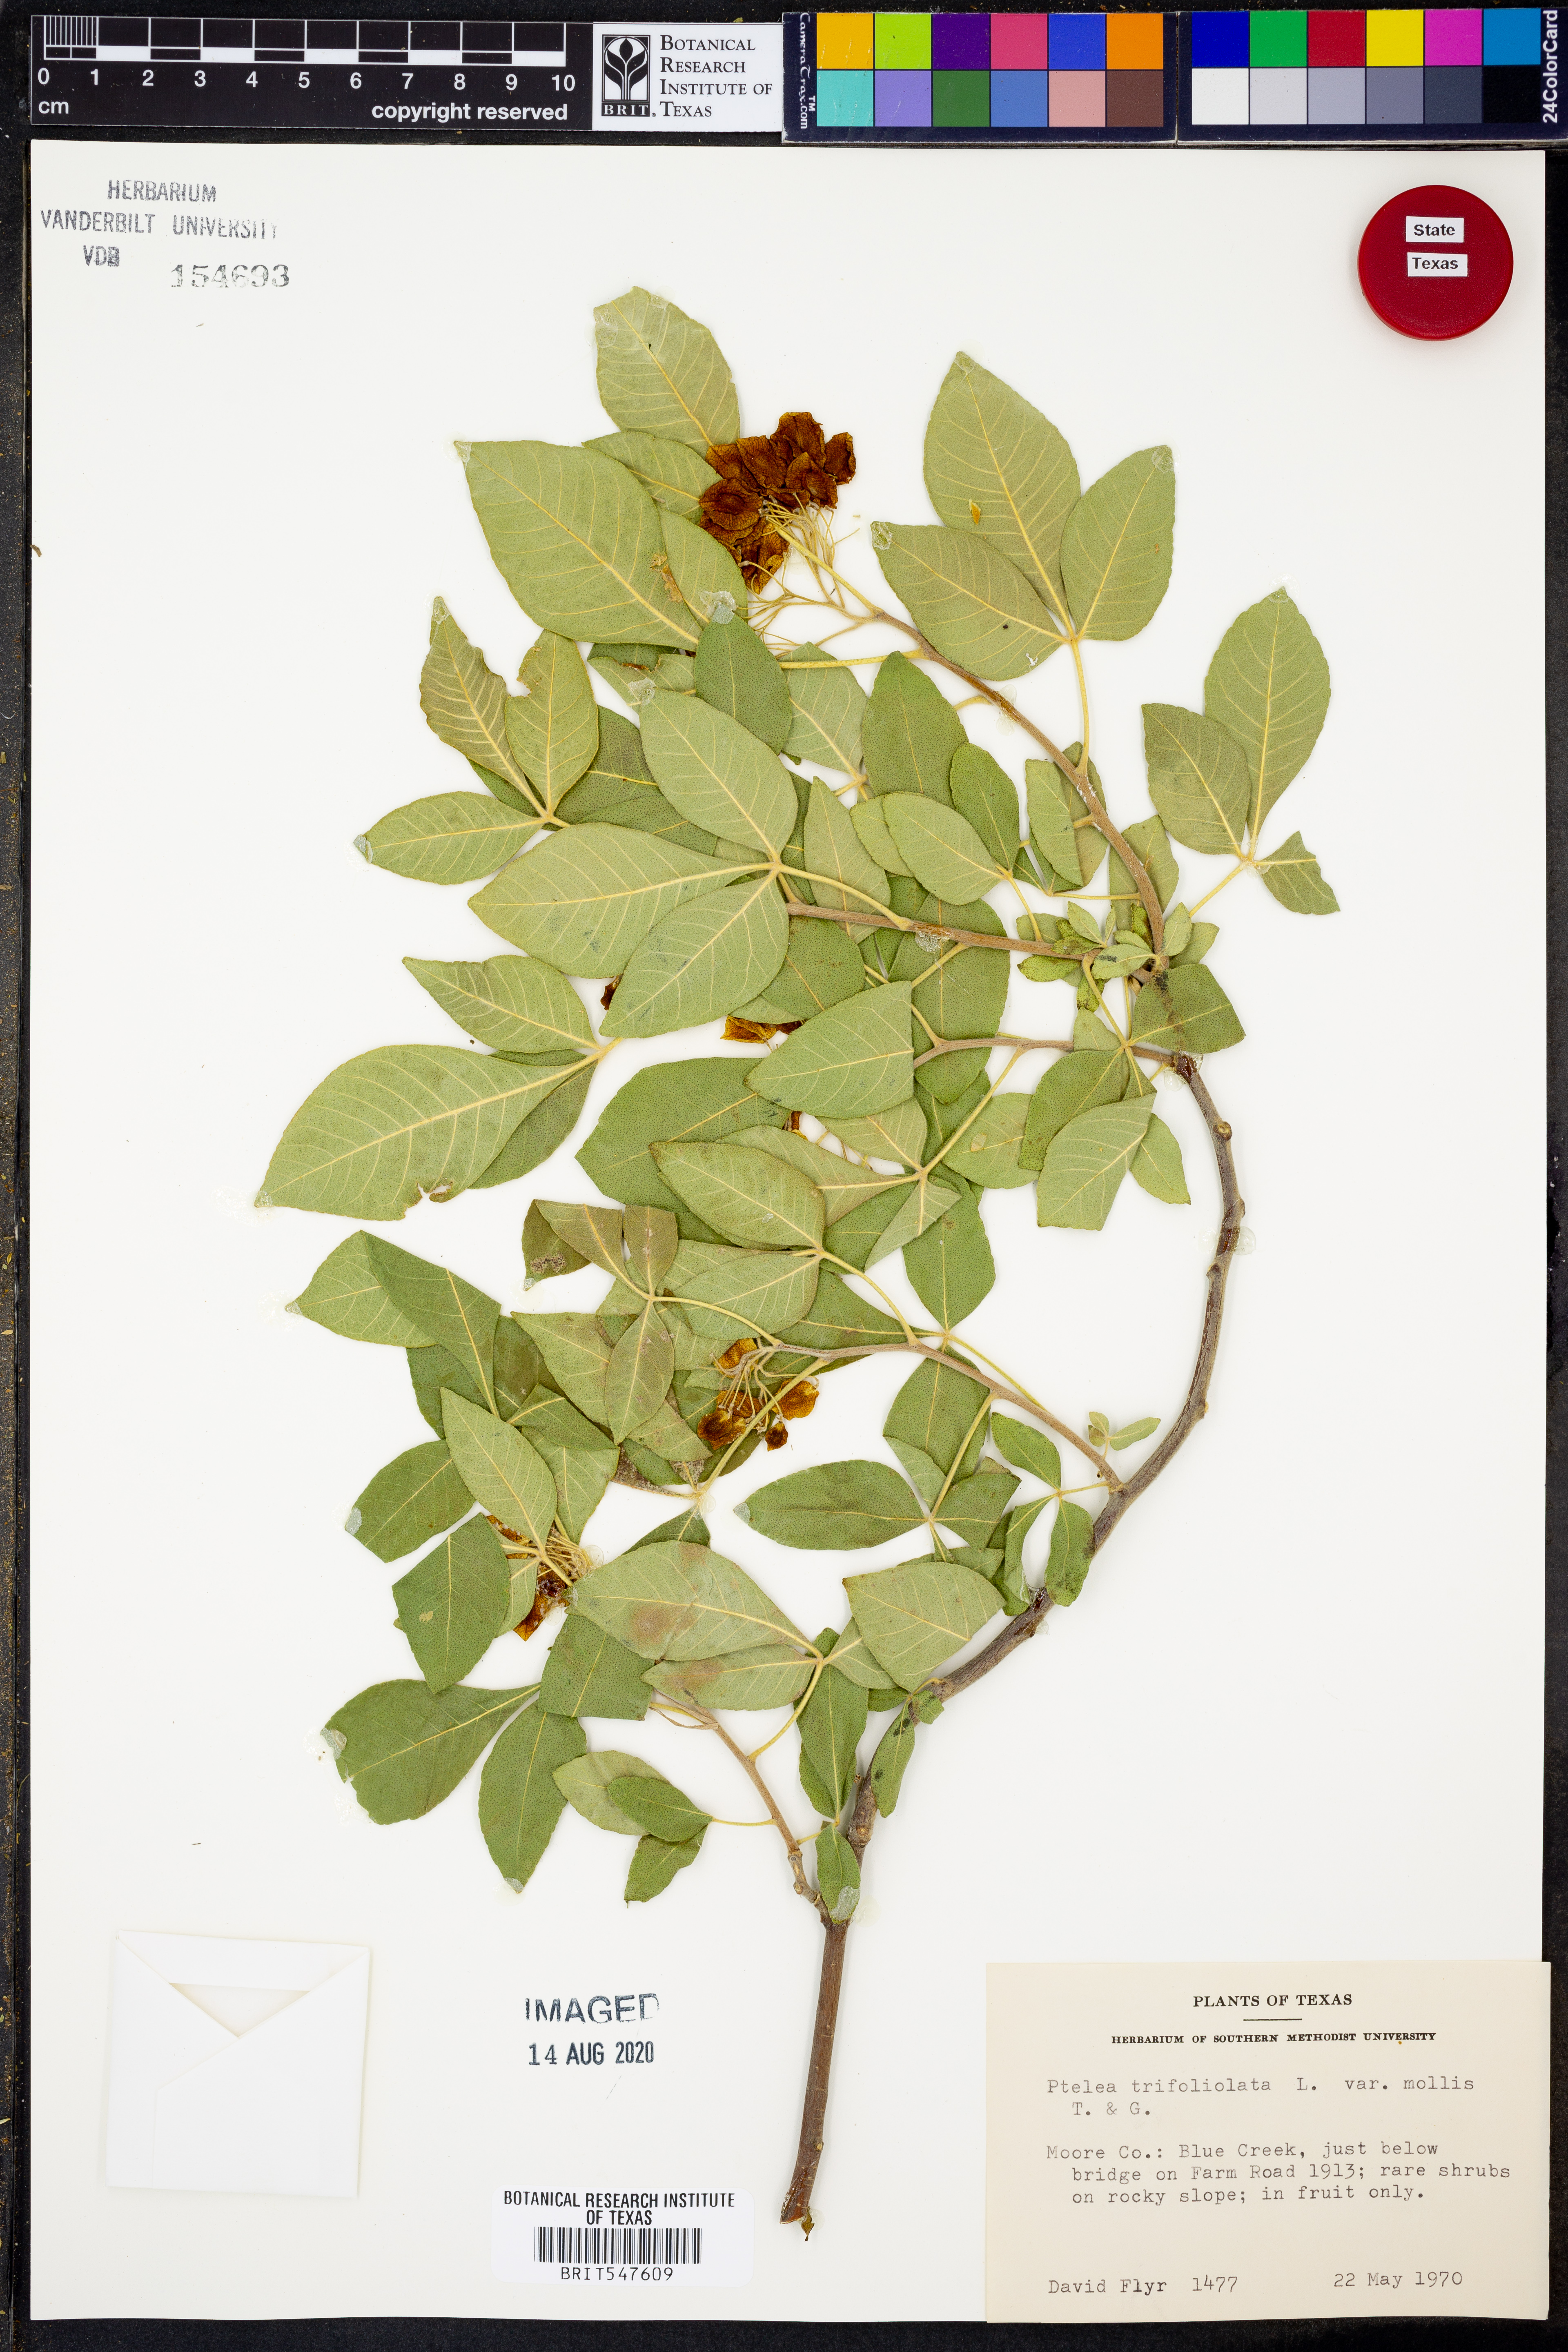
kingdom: Plantae
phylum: Tracheophyta
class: Magnoliopsida
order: Sapindales
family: Rutaceae
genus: Ptelea
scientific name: Ptelea trifoliata
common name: Common hop-tree
